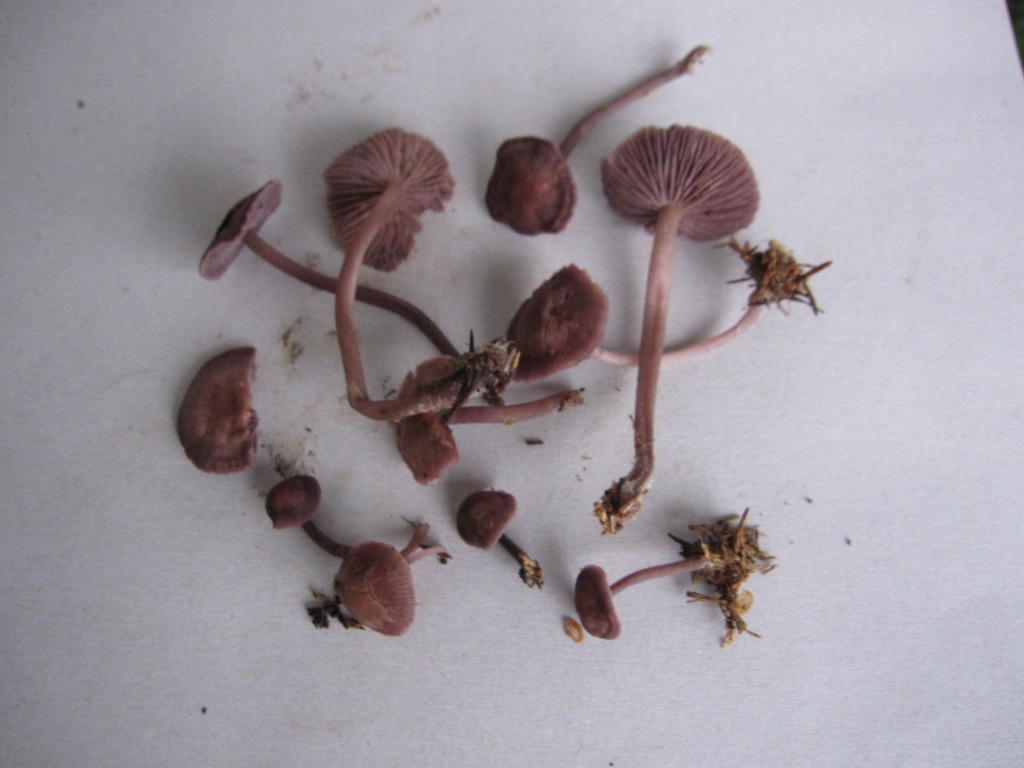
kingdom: Fungi
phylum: Basidiomycota
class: Agaricomycetes
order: Agaricales
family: Mycenaceae
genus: Prunulus
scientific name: Prunulus diosmus
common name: tobaks-huesvamp
